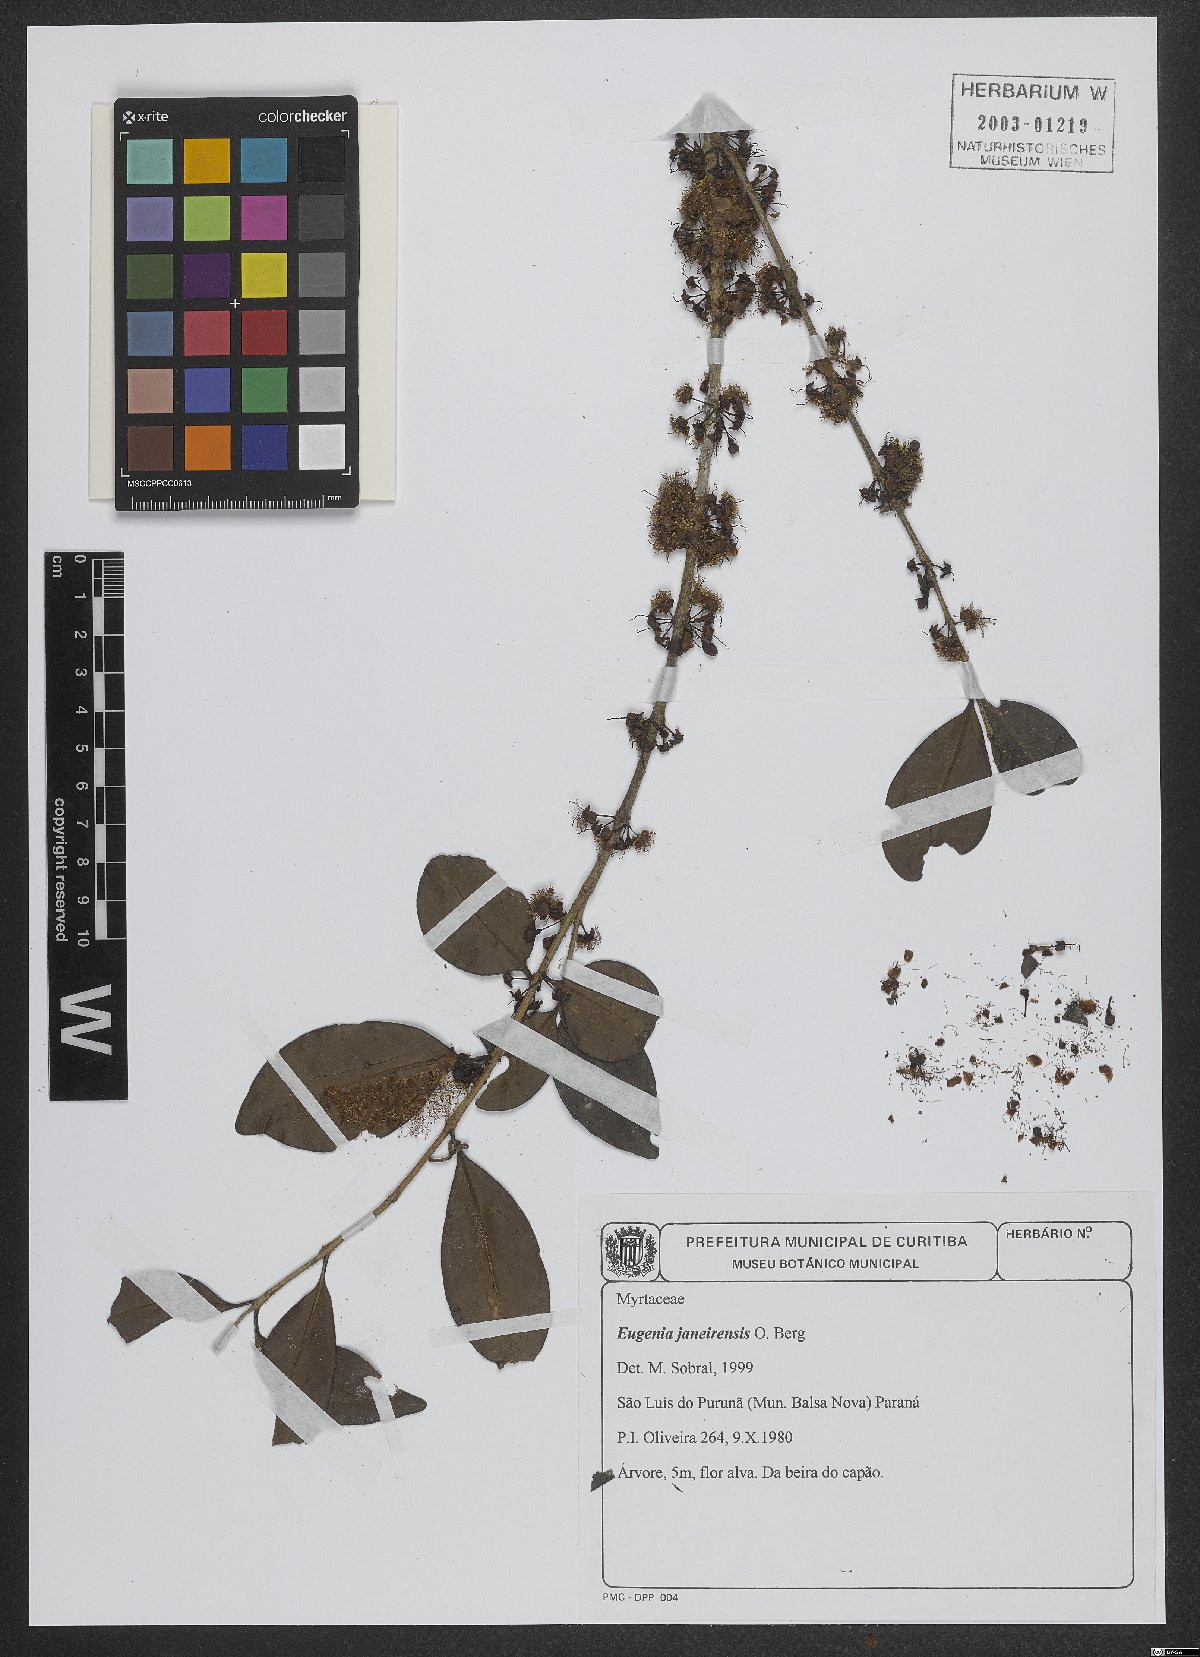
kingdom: Plantae
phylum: Tracheophyta
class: Magnoliopsida
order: Myrtales
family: Myrtaceae
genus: Eugenia
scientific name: Eugenia janeirensis
